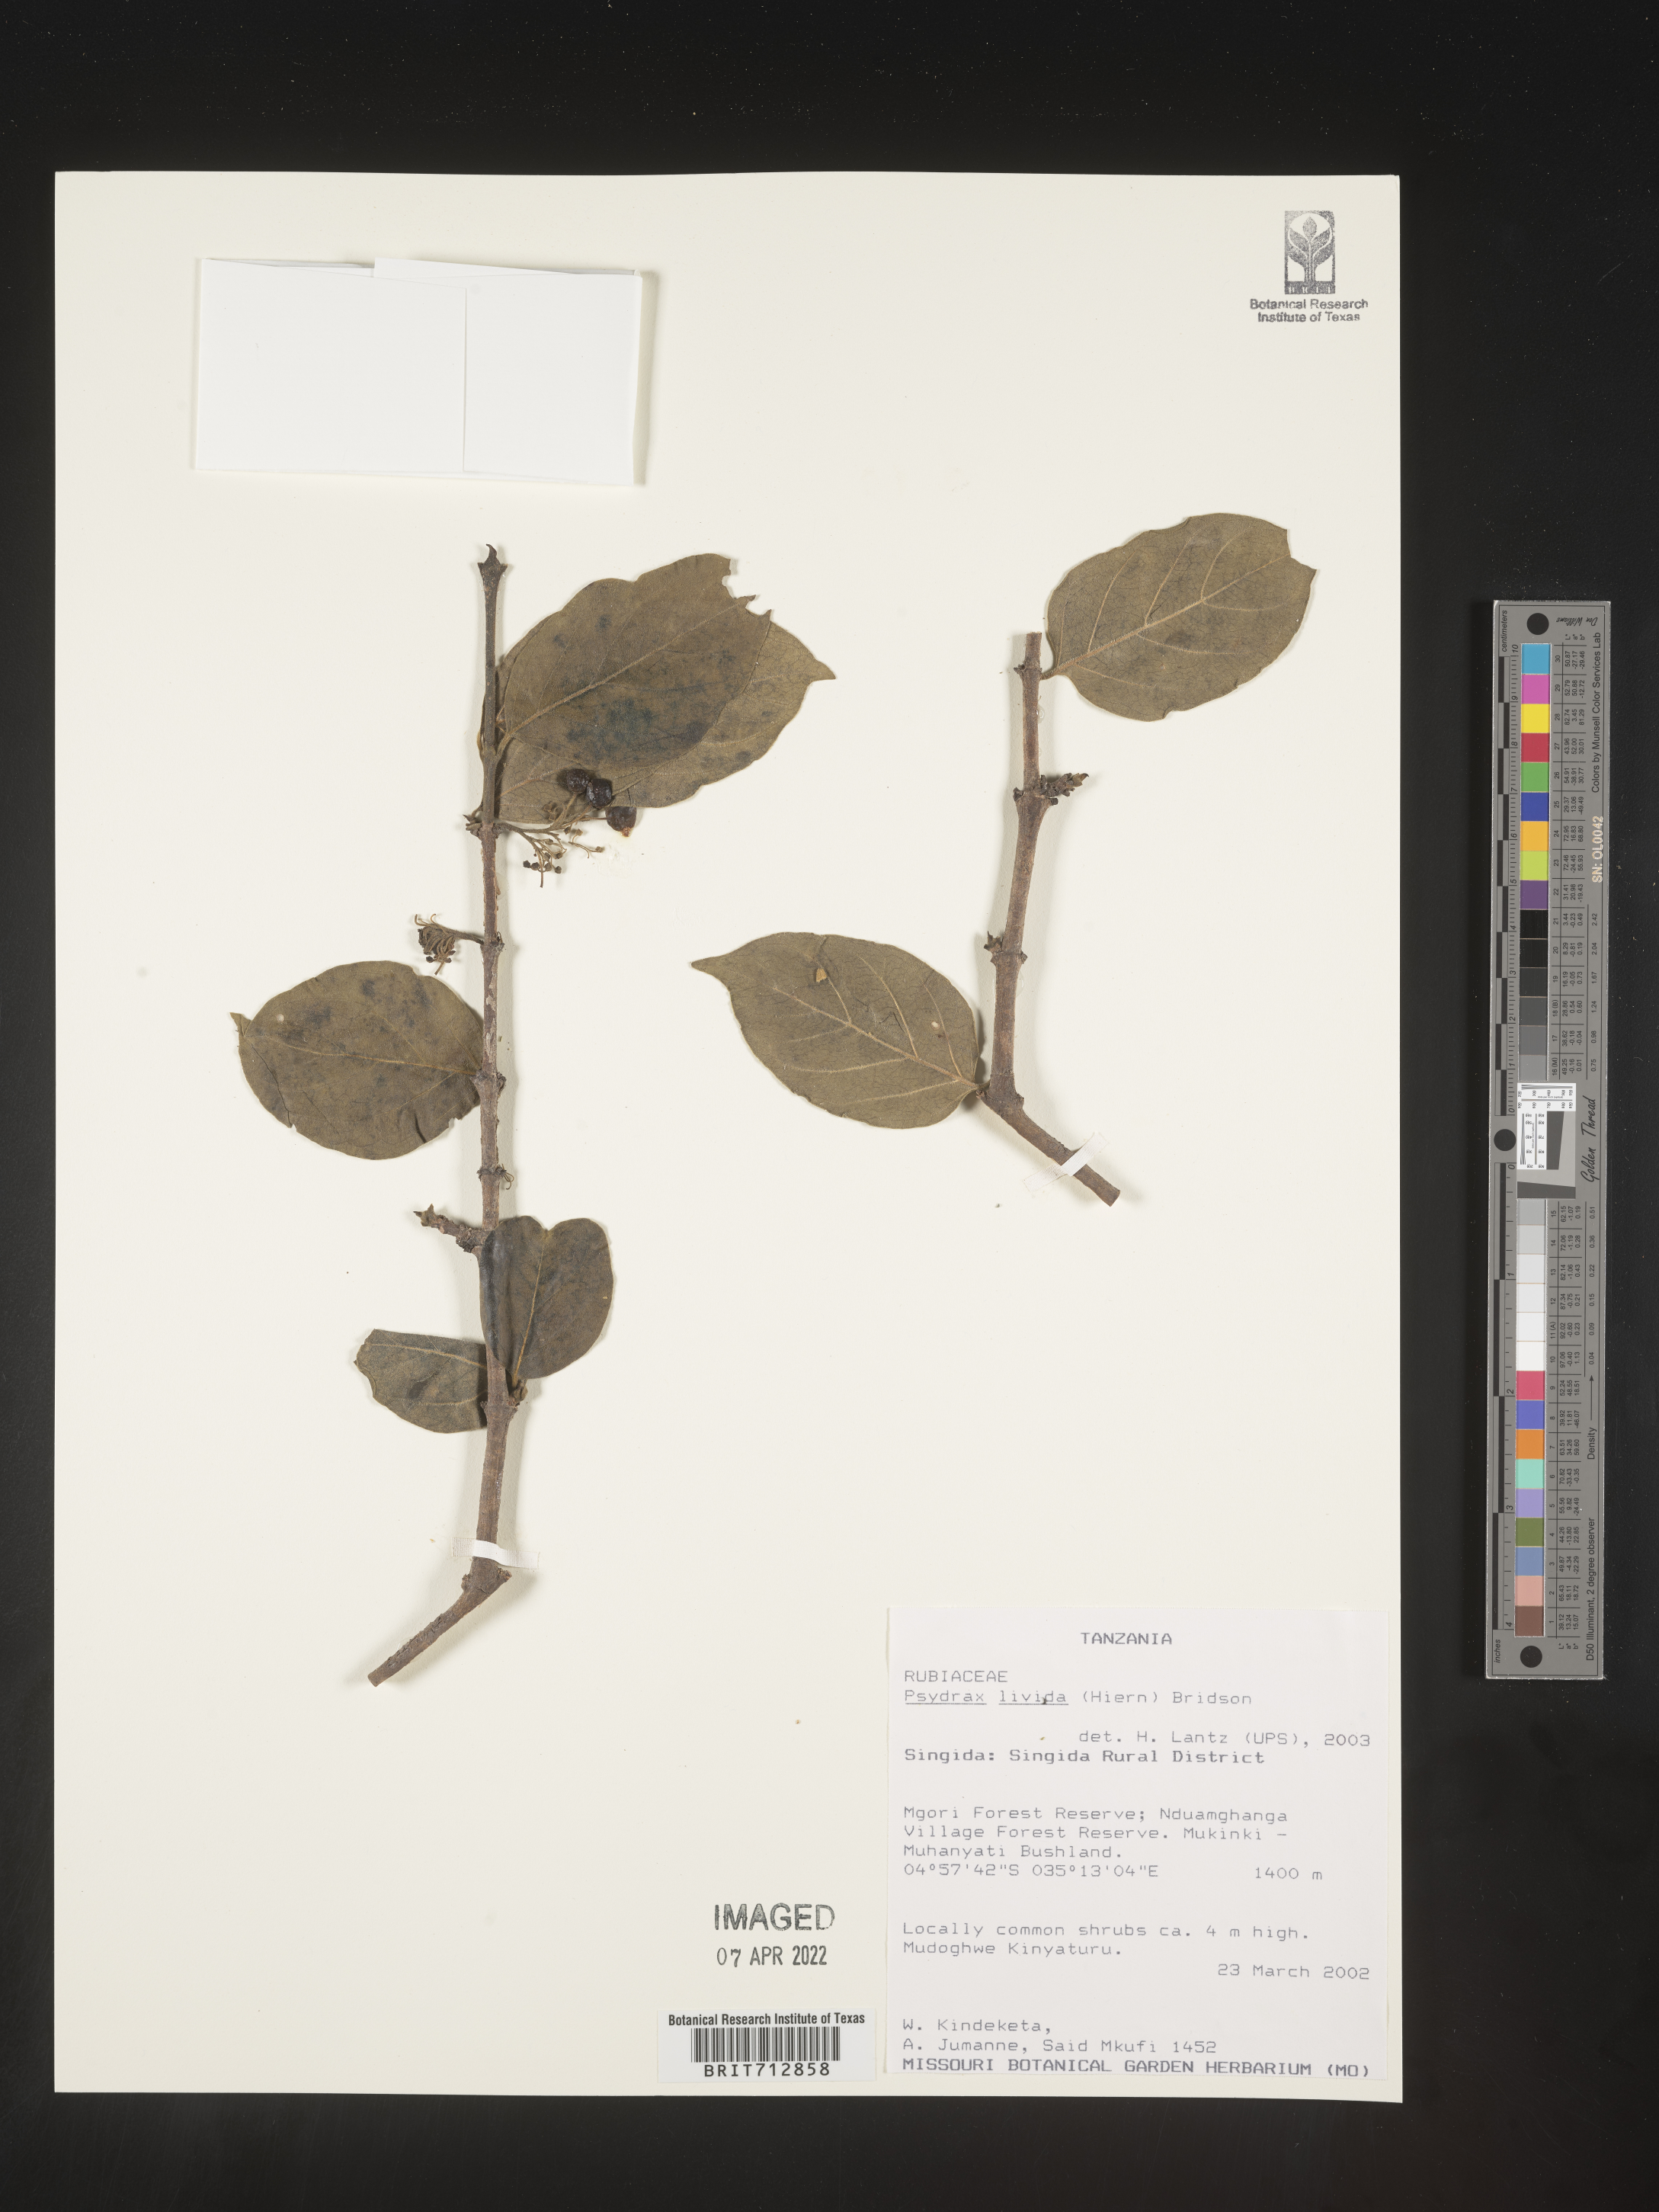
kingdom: Plantae
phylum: Tracheophyta
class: Magnoliopsida
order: Gentianales
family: Rubiaceae
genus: Psydrax
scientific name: Psydrax
